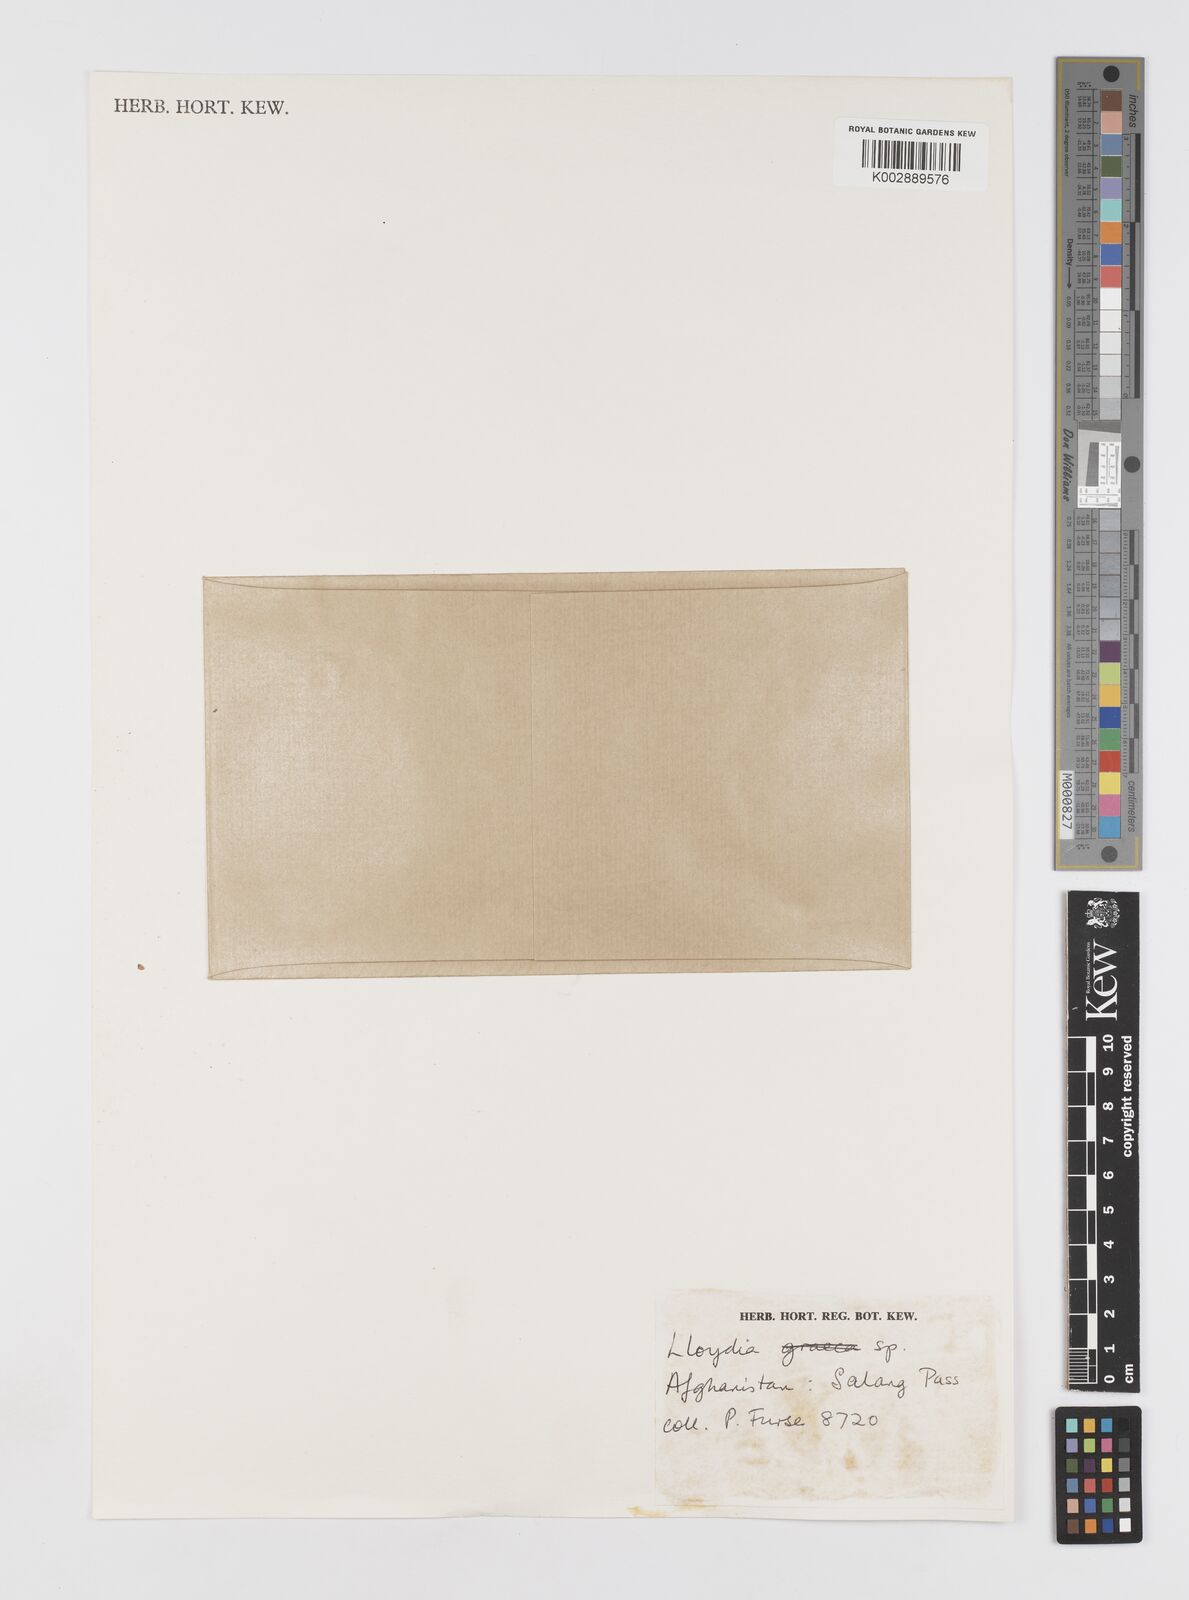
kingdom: Plantae
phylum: Tracheophyta
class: Liliopsida
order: Liliales
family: Liliaceae
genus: Gagea
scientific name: Gagea
